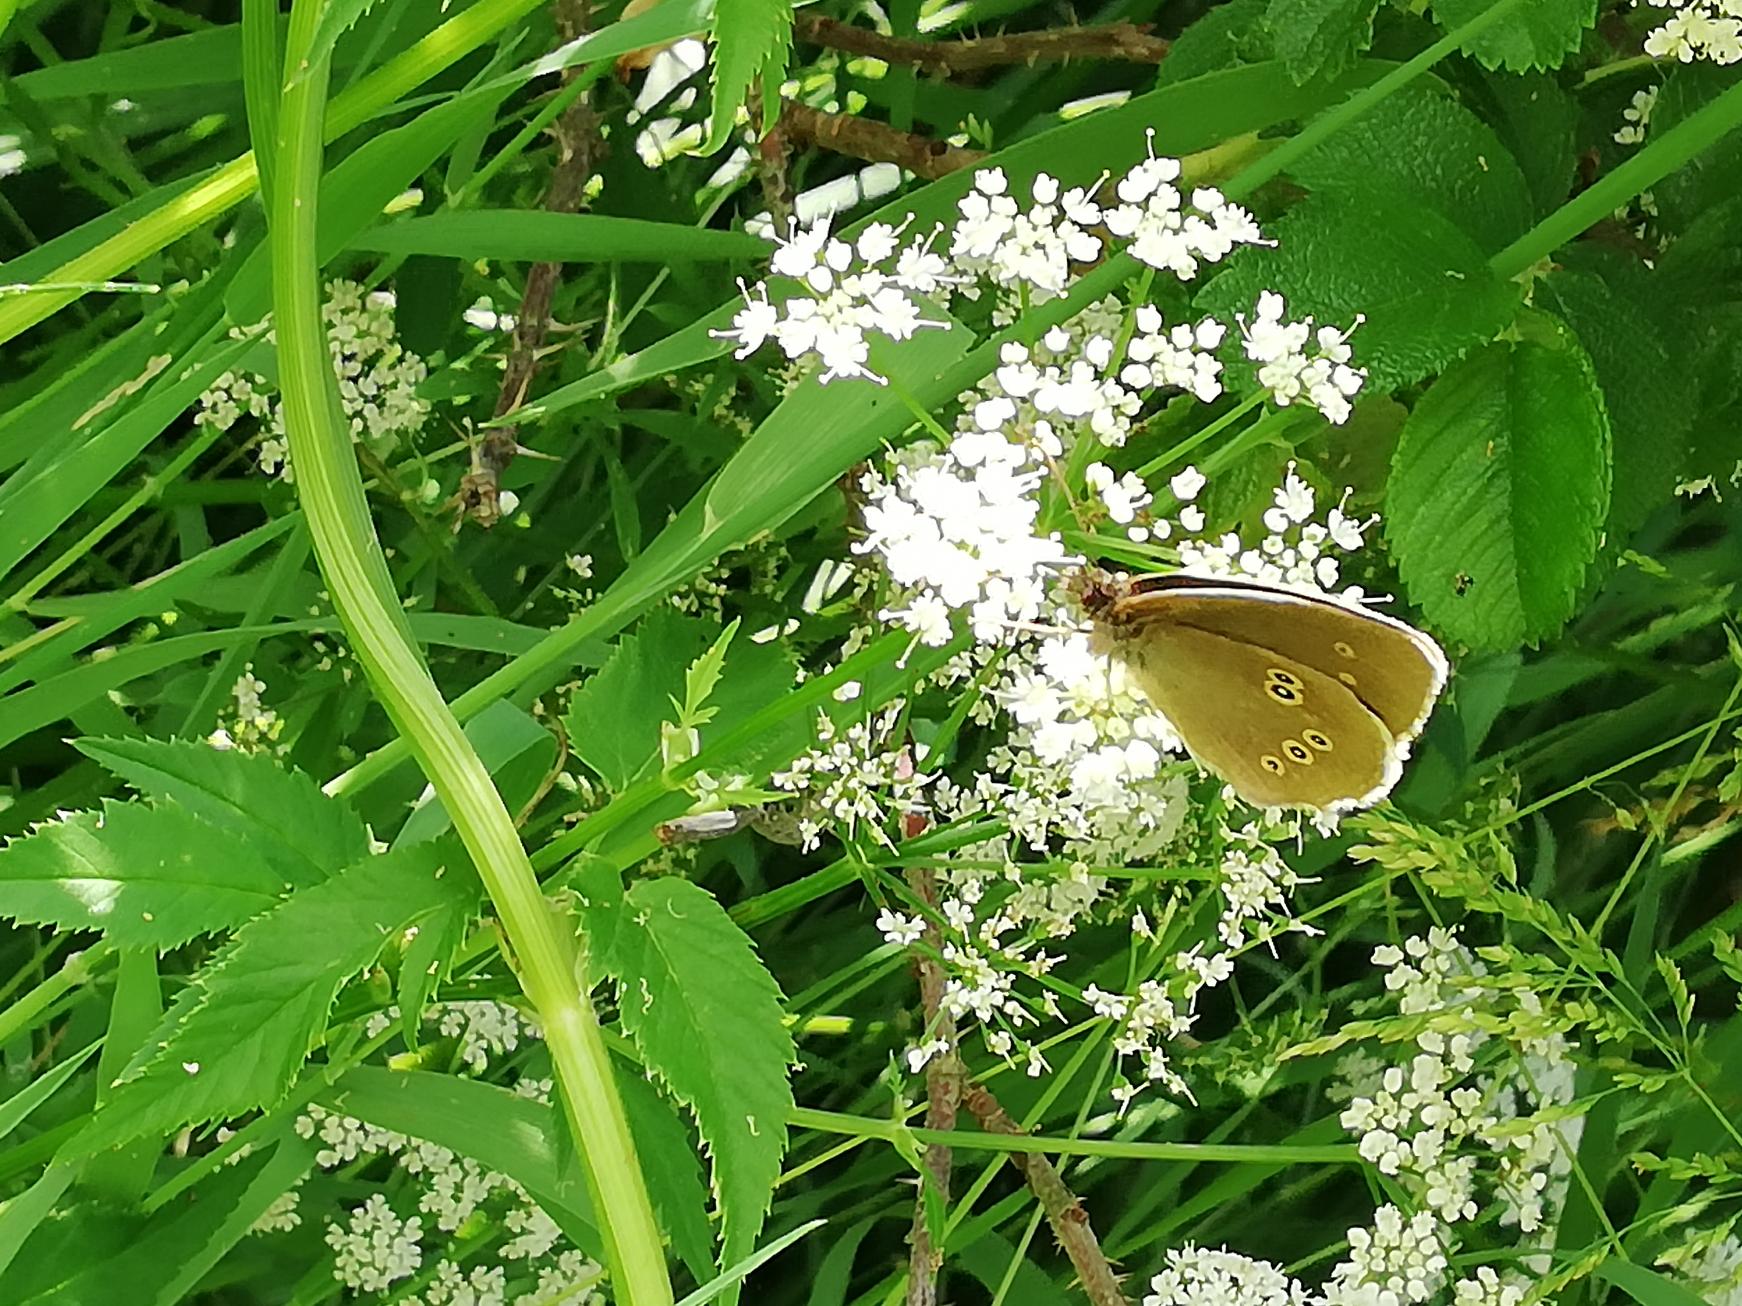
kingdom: Animalia
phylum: Arthropoda
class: Insecta
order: Lepidoptera
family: Nymphalidae
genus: Aphantopus
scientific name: Aphantopus hyperantus
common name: Engrandøje
